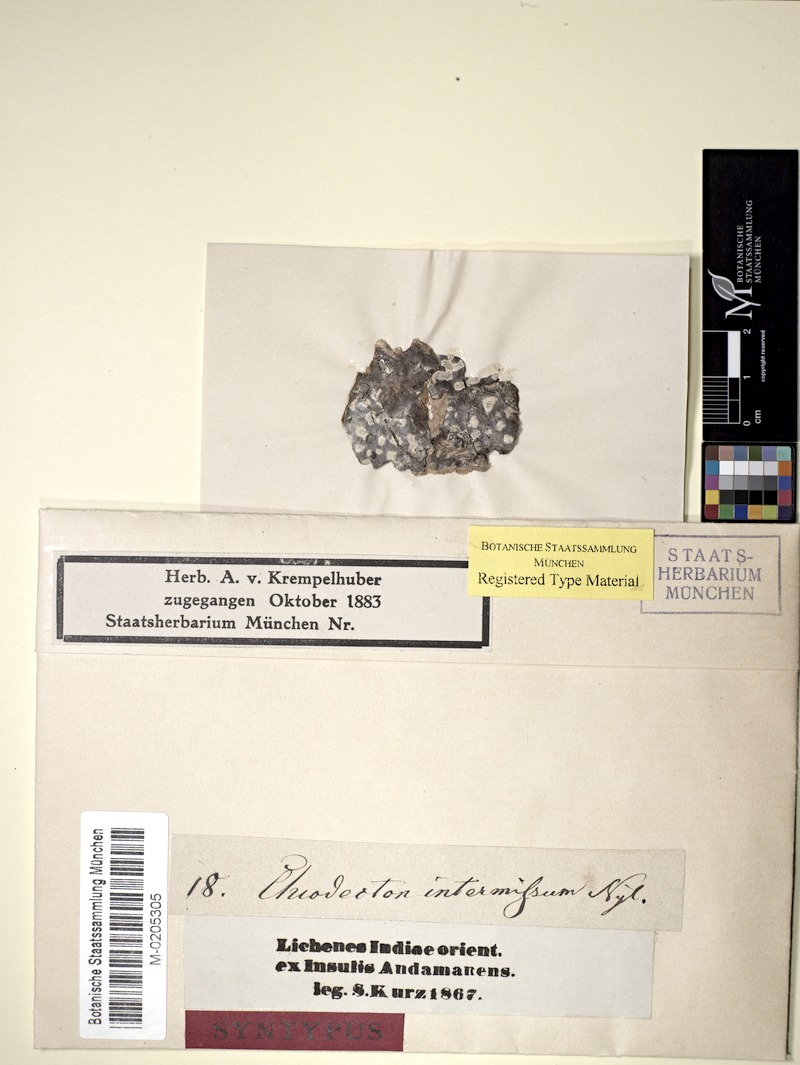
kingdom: Fungi
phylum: Ascomycota
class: Arthoniomycetes
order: Arthoniales
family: Roccellaceae
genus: Chiodecton
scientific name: Chiodecton
